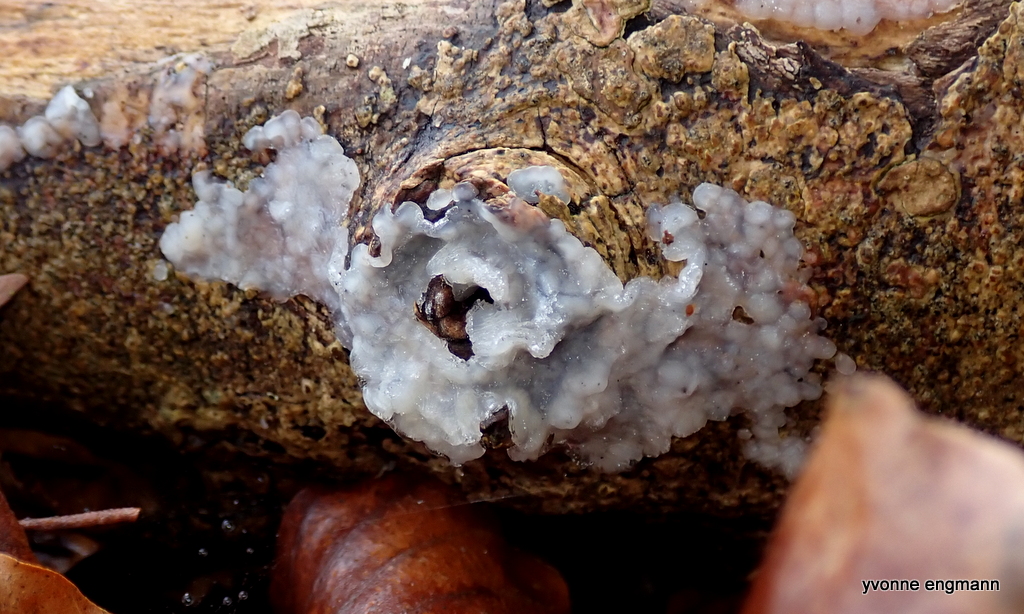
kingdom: Fungi
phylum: Basidiomycota
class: Agaricomycetes
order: Auriculariales
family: Hyaloriaceae
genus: Myxarium
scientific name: Myxarium nucleatum
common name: klar bævretop
